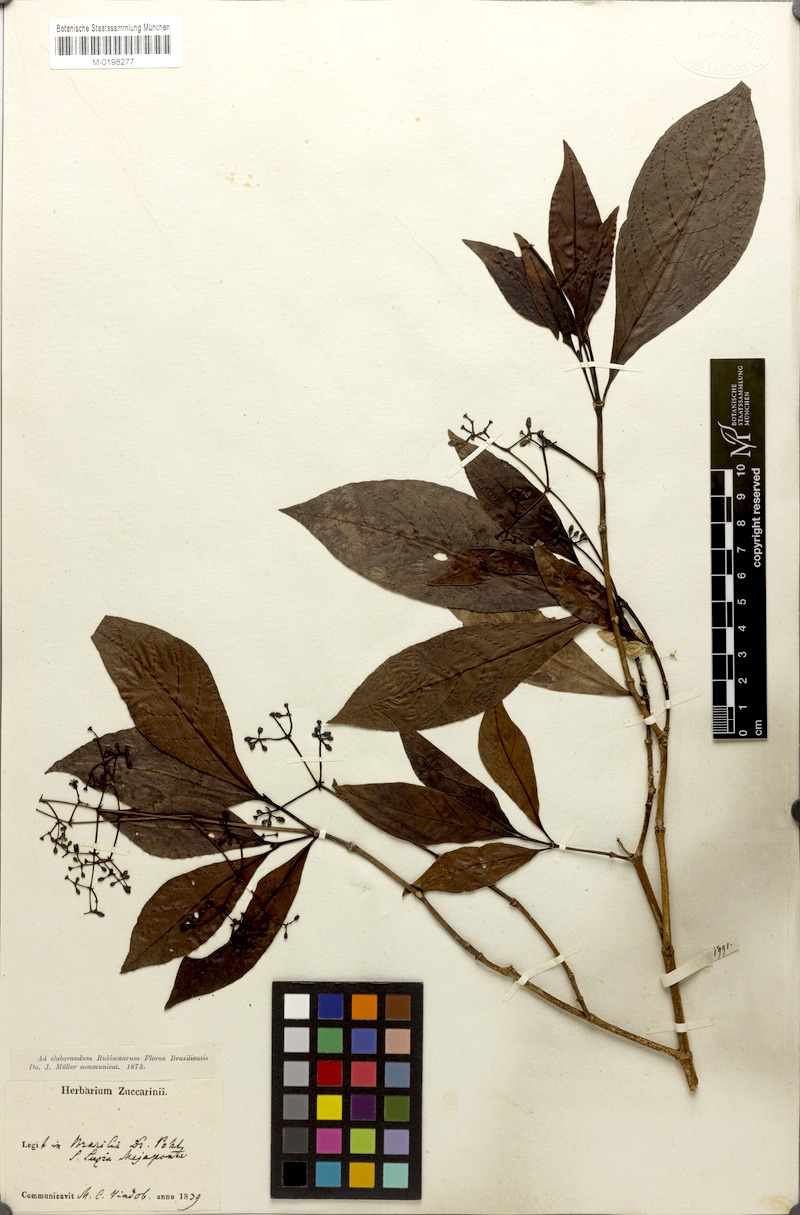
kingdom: Plantae
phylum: Tracheophyta
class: Magnoliopsida
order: Gentianales
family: Rubiaceae
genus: Psychotria
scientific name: Psychotria formosa
